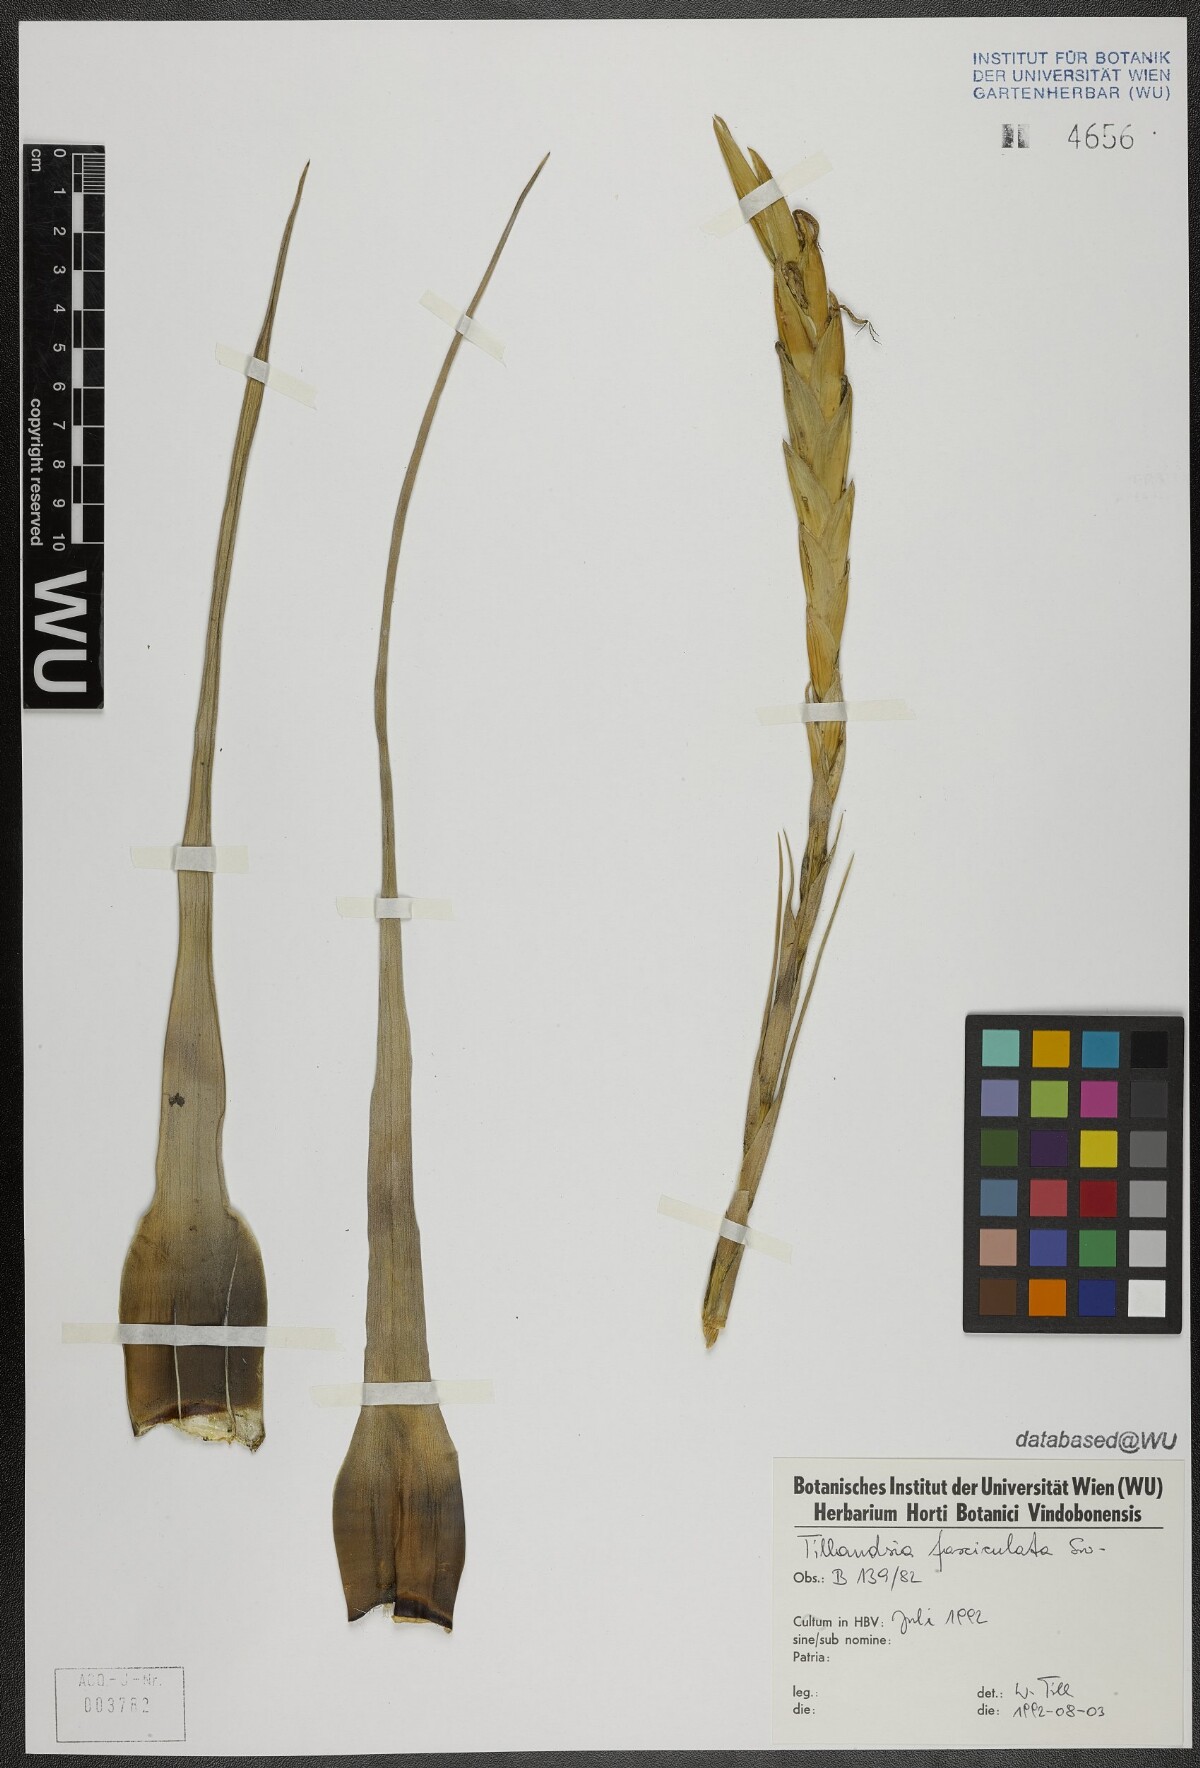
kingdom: Plantae
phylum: Tracheophyta
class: Liliopsida
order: Poales
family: Bromeliaceae
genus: Tillandsia
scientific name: Tillandsia fasciculata
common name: Giant airplant
